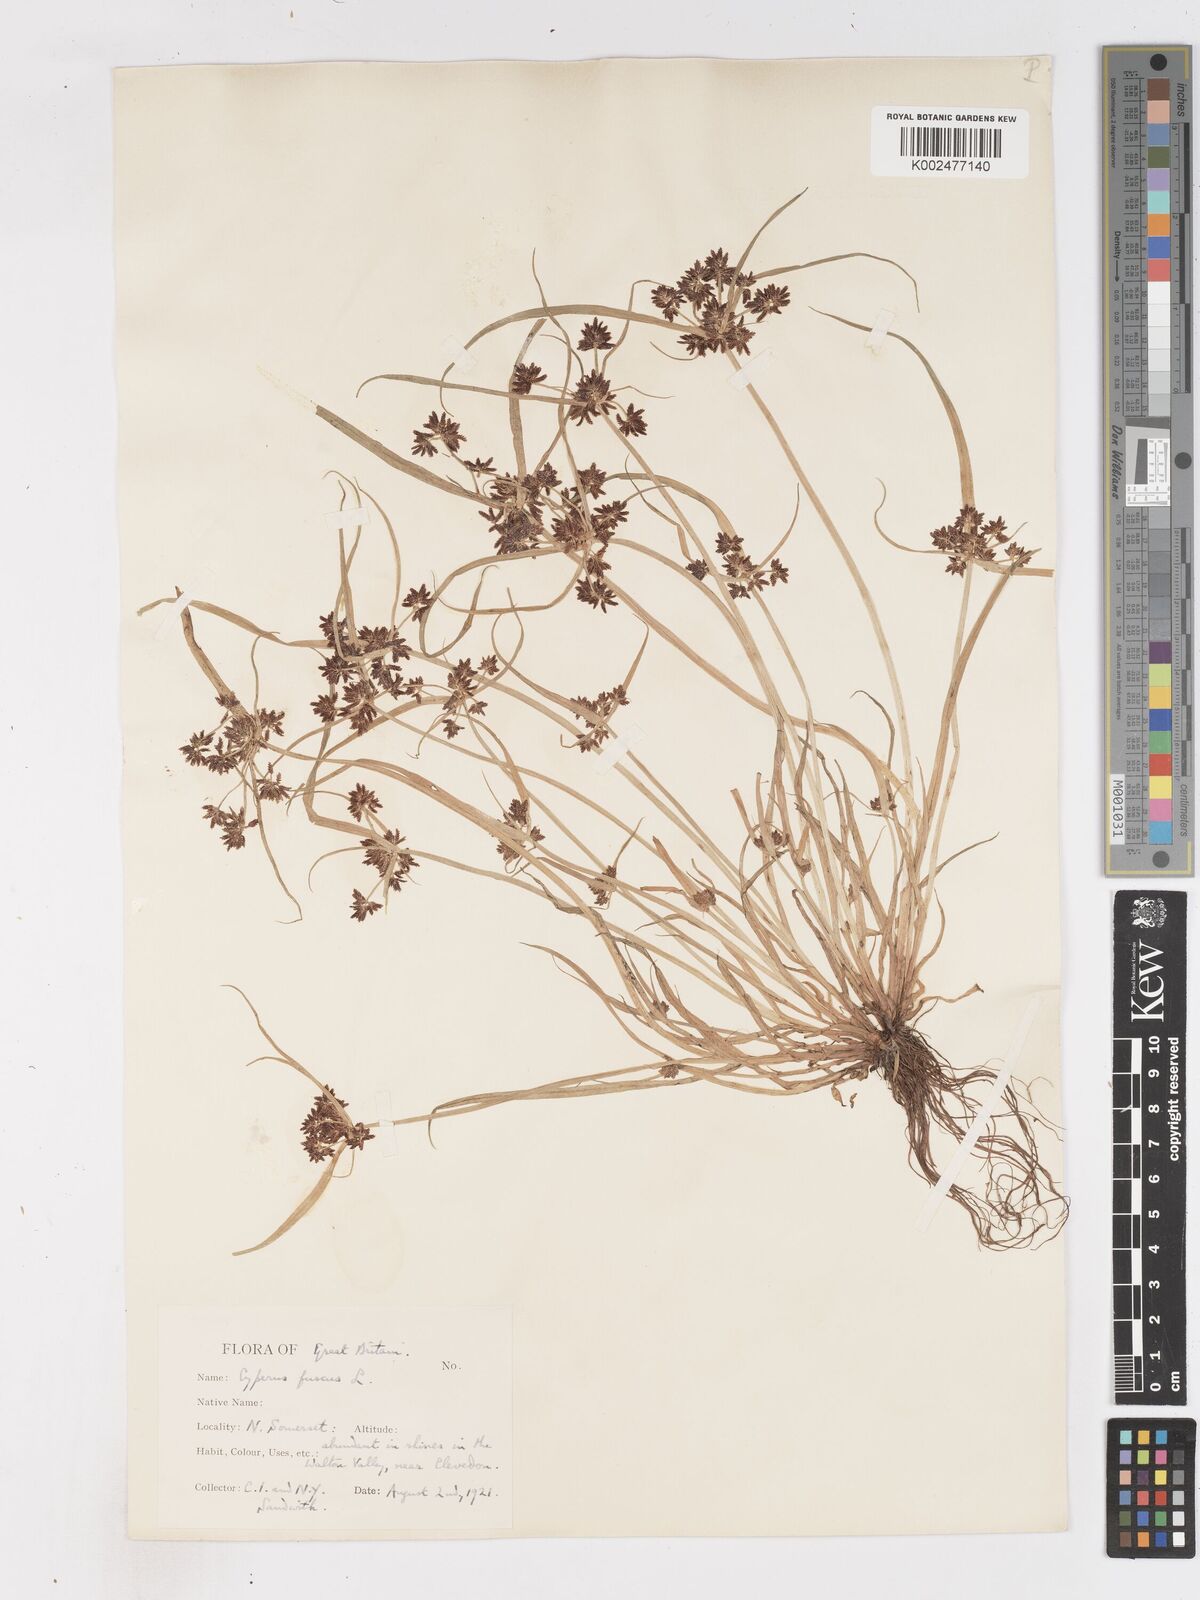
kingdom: Plantae
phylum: Tracheophyta
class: Liliopsida
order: Poales
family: Cyperaceae
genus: Cyperus
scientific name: Cyperus fuscus
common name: Brown galingale
